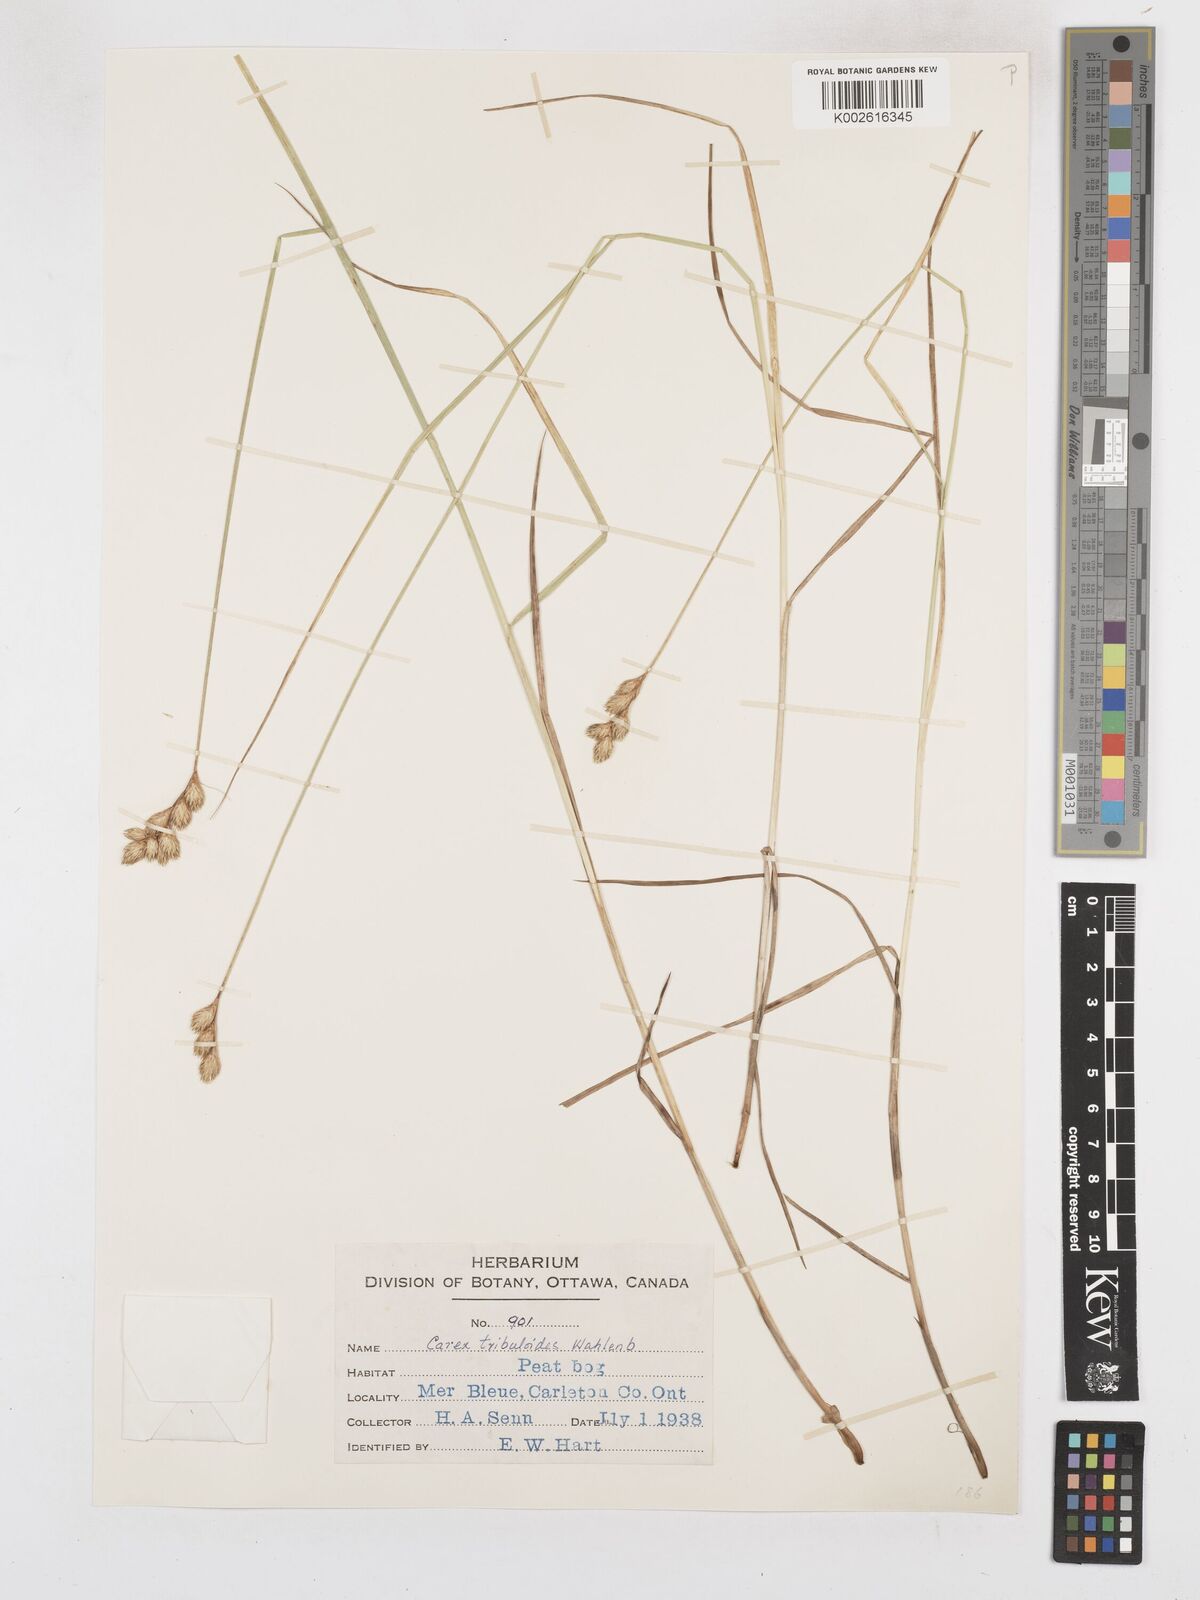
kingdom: Plantae
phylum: Tracheophyta
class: Liliopsida
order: Poales
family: Cyperaceae
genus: Carex
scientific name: Carex tribuloides
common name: Blunt broom sedge
